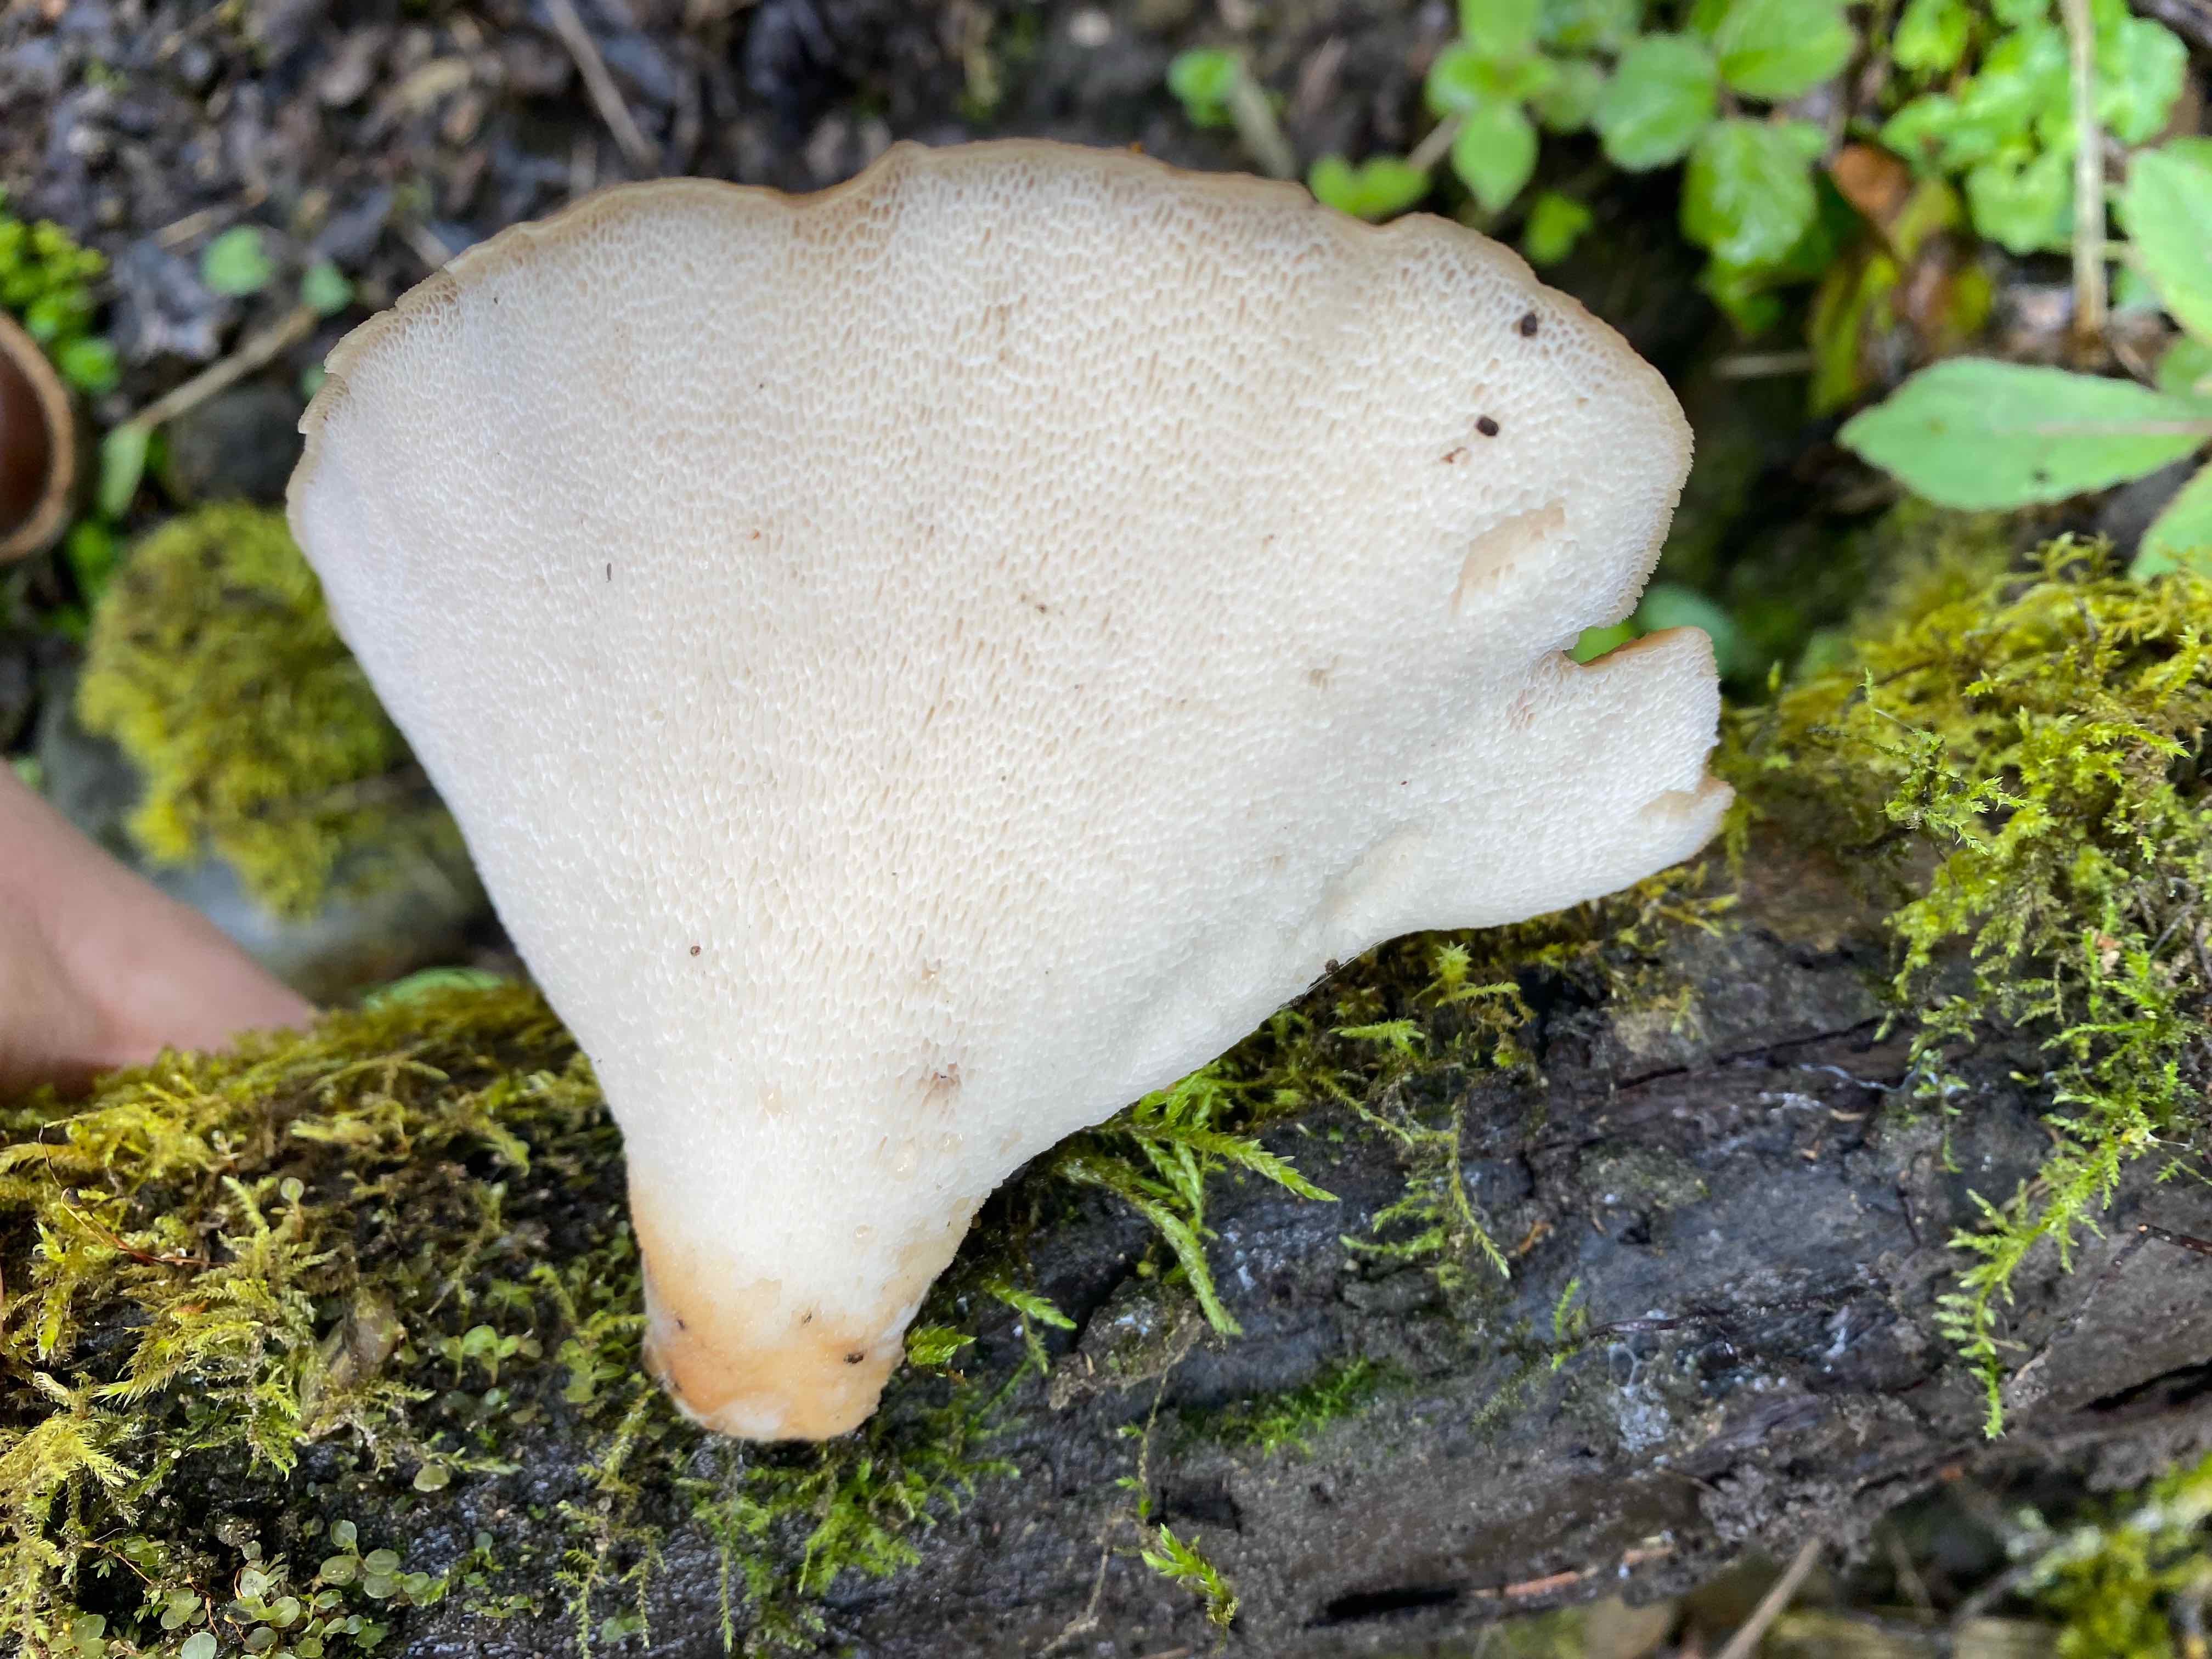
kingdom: Fungi
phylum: Basidiomycota
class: Agaricomycetes
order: Polyporales
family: Polyporaceae
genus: Polyporus
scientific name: Polyporus tuberaster
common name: knoldet stilkporesvamp
